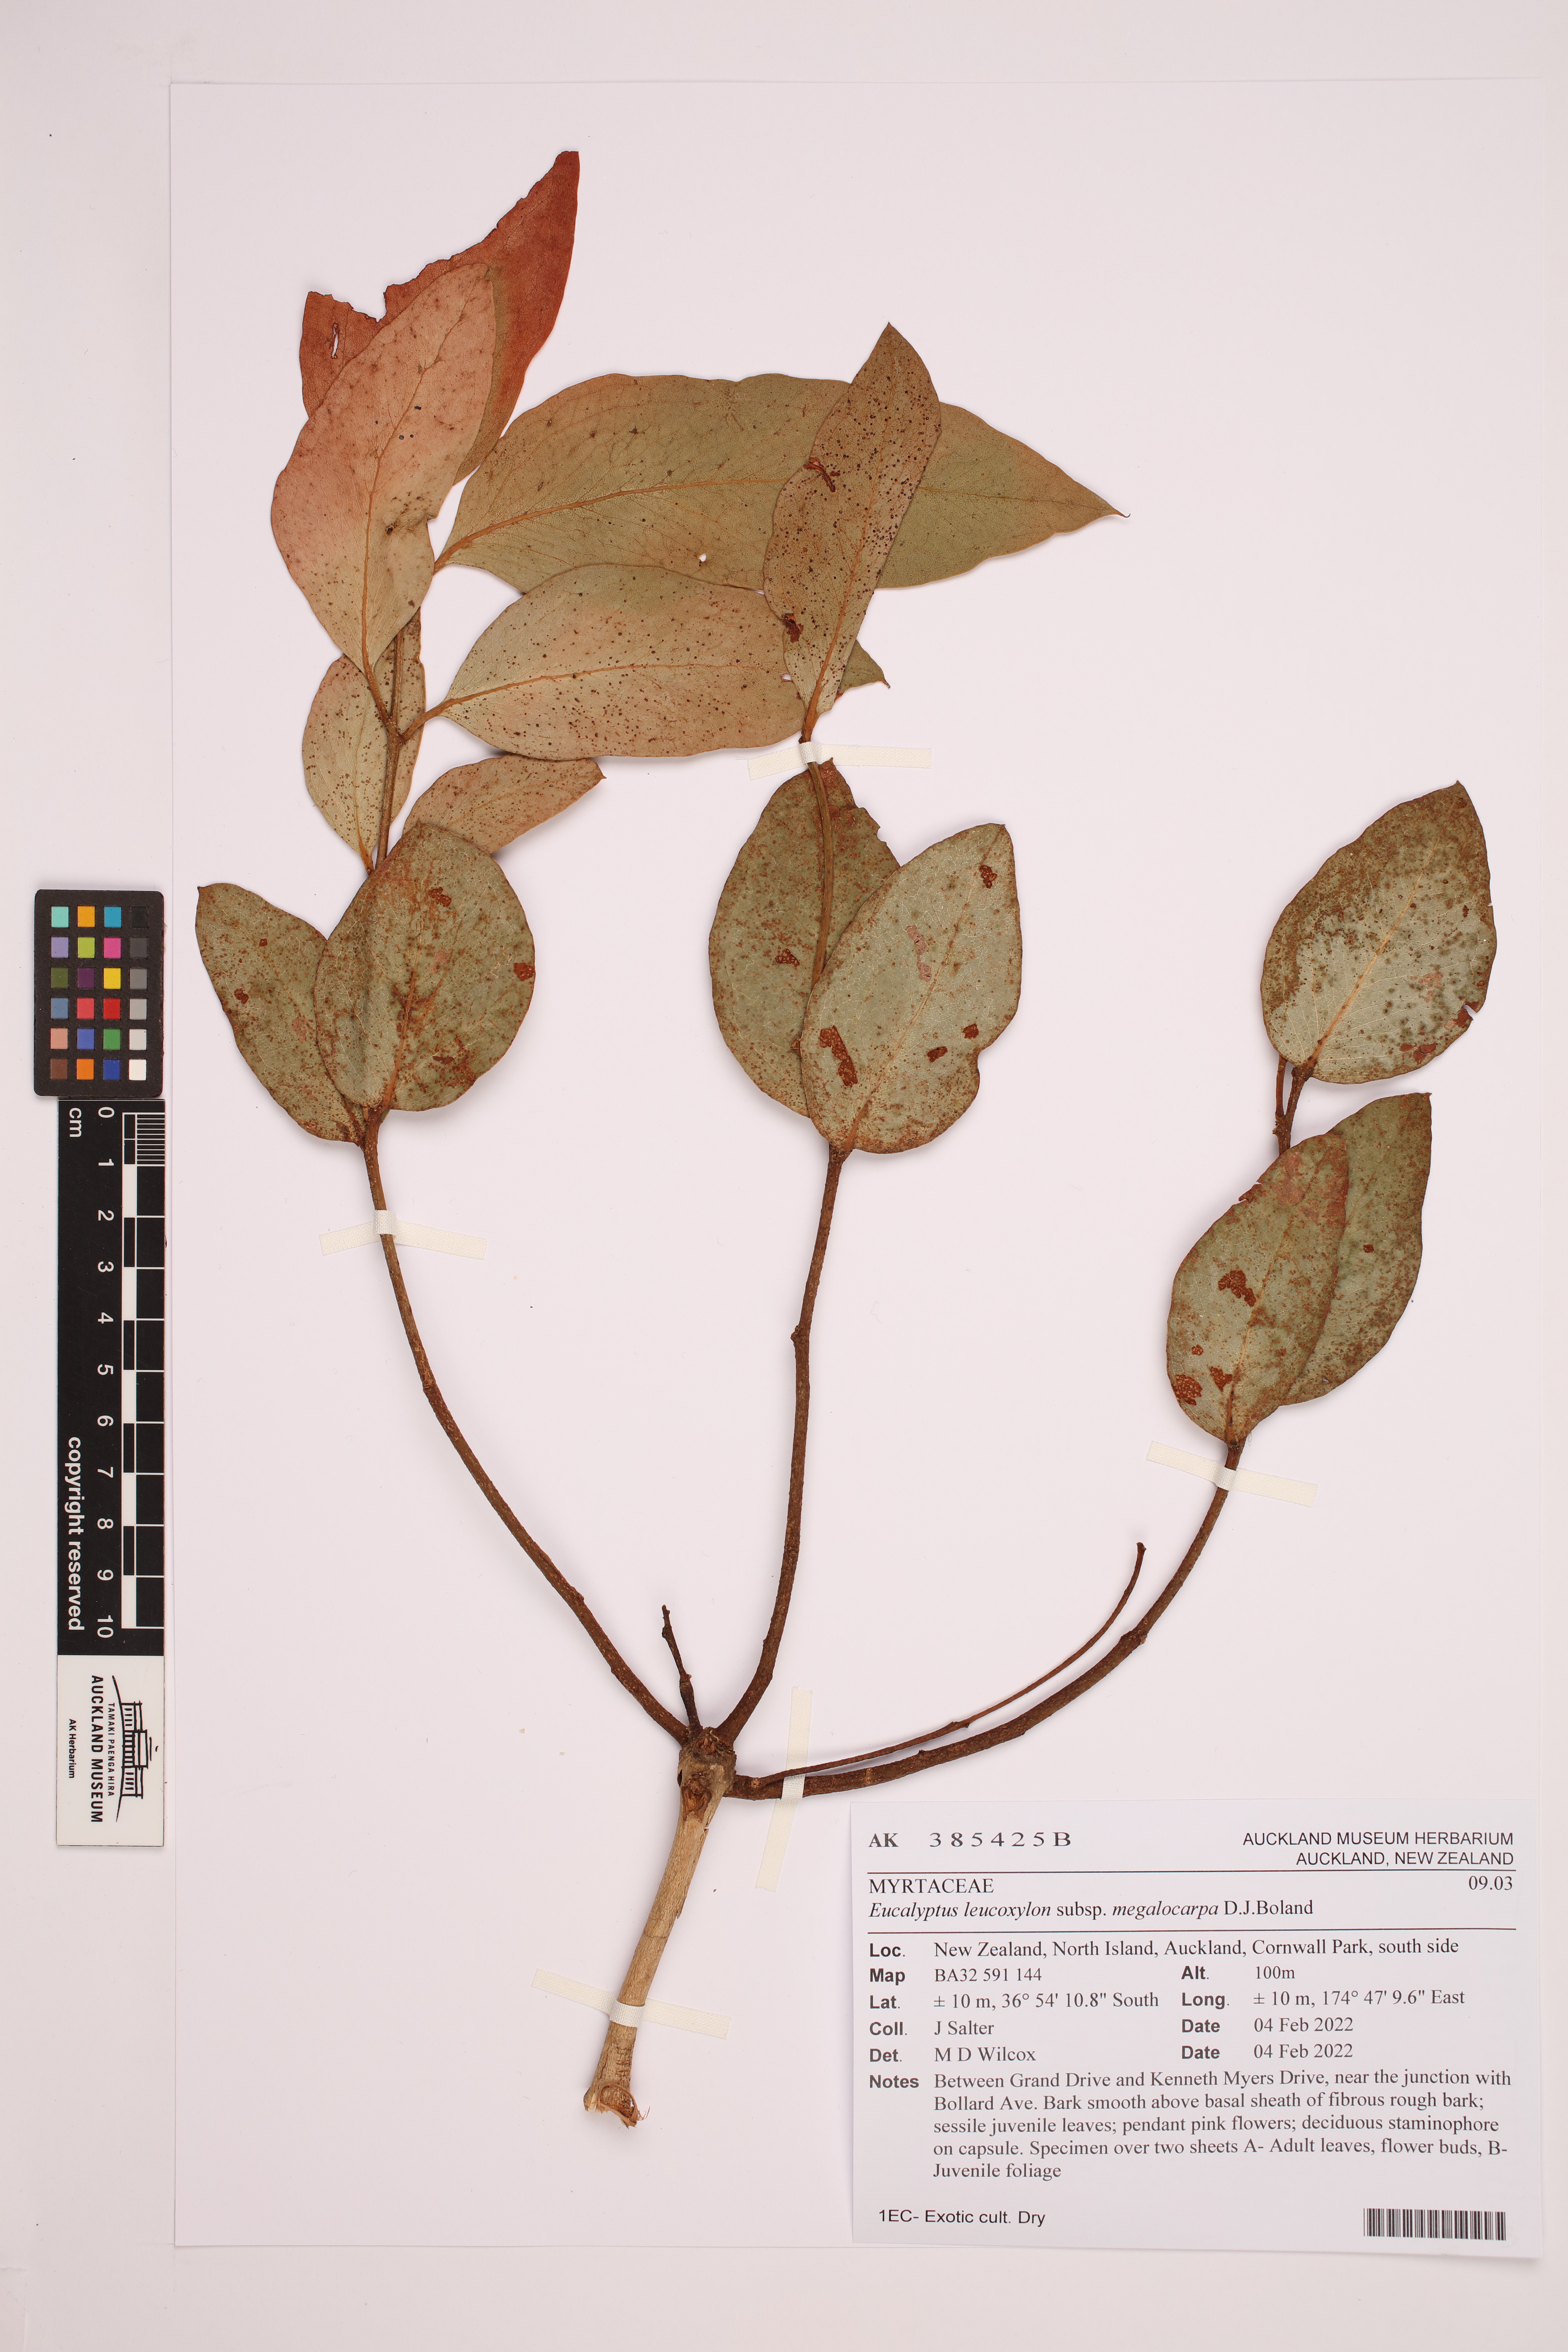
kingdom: Plantae
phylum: Tracheophyta
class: Magnoliopsida
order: Myrtales
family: Myrtaceae
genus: Eucalyptus
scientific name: Eucalyptus leucoxylon
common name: Blue gum
